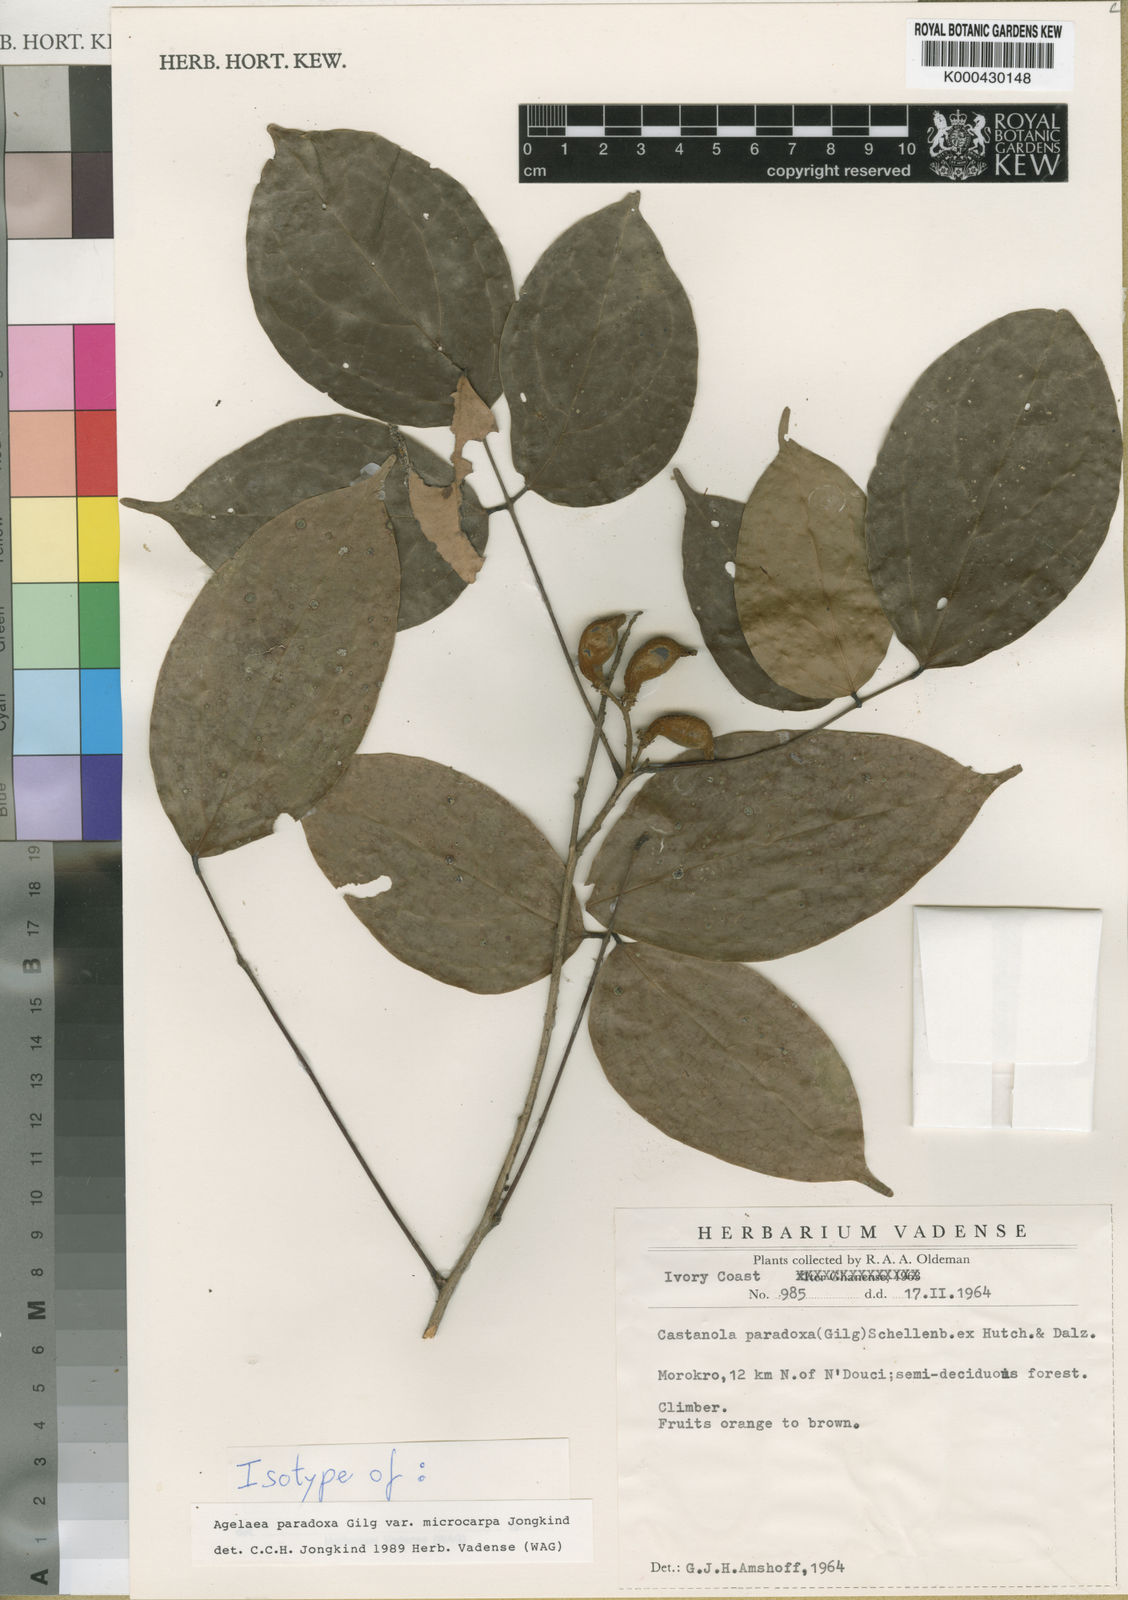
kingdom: Plantae
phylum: Tracheophyta
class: Magnoliopsida
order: Oxalidales
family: Connaraceae
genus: Castanola
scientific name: Castanola paradoxa
